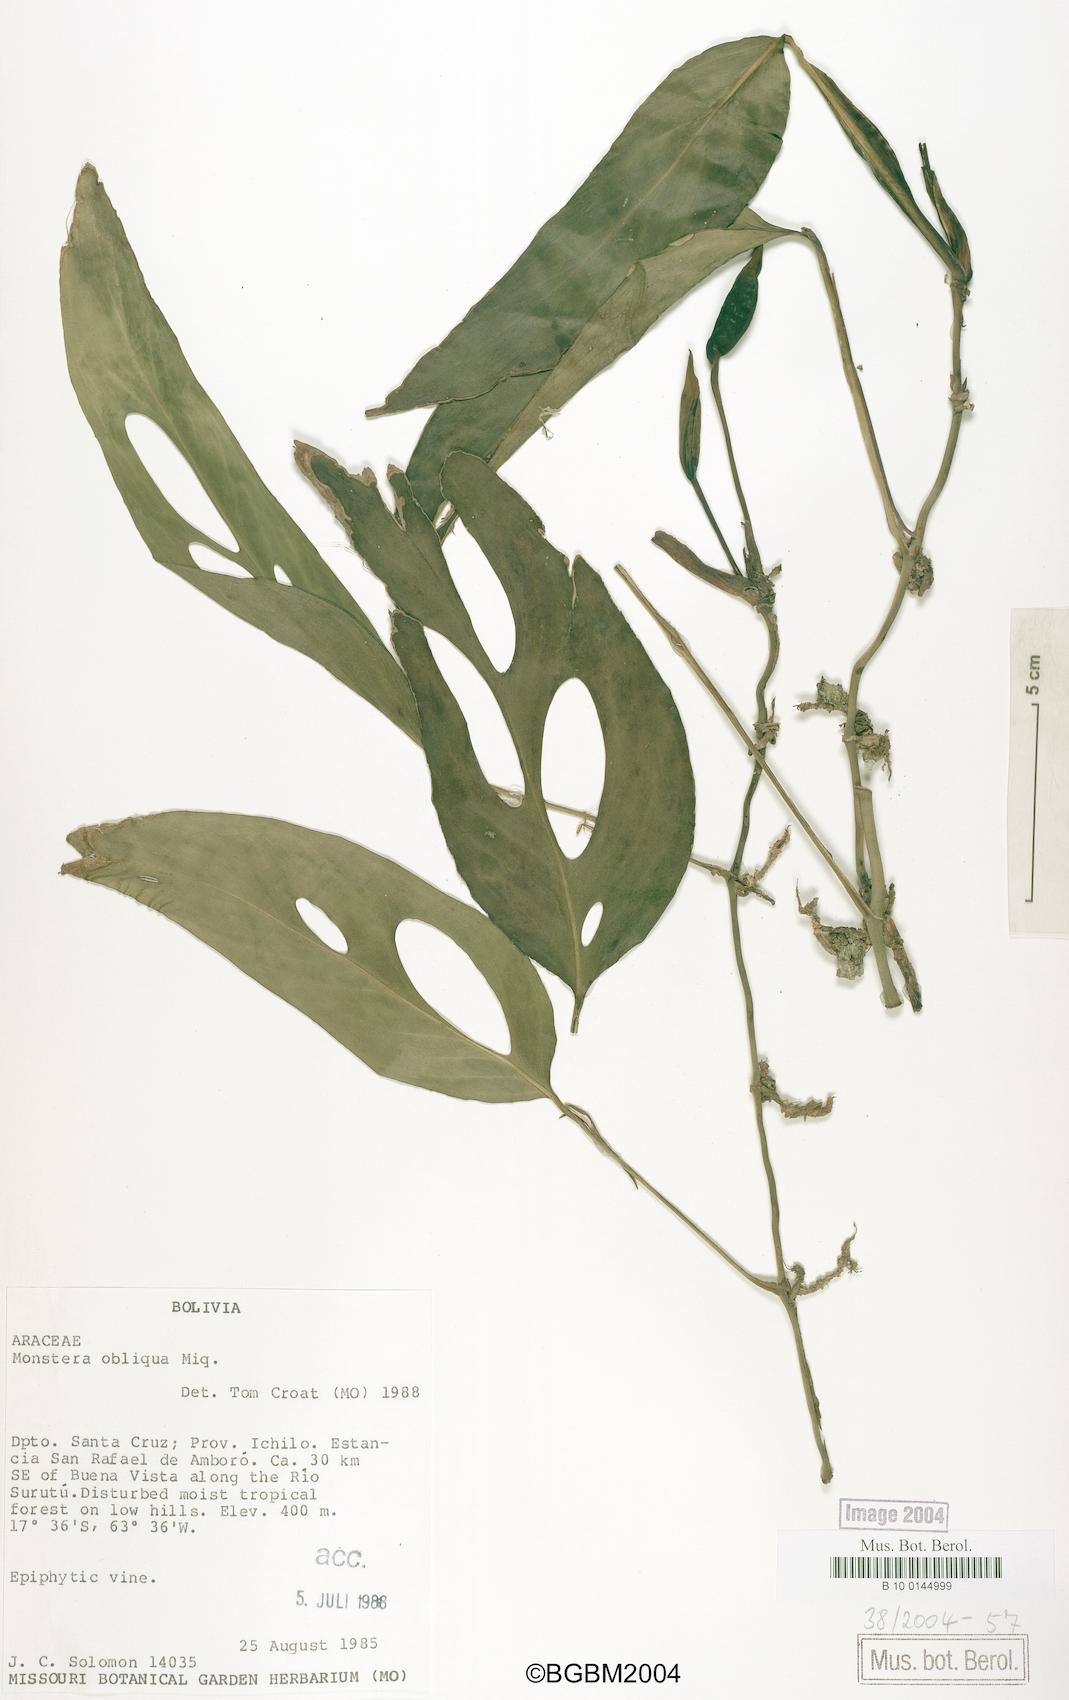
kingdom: Plantae
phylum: Tracheophyta
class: Liliopsida
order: Alismatales
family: Araceae
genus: Monstera
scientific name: Monstera obliqua
